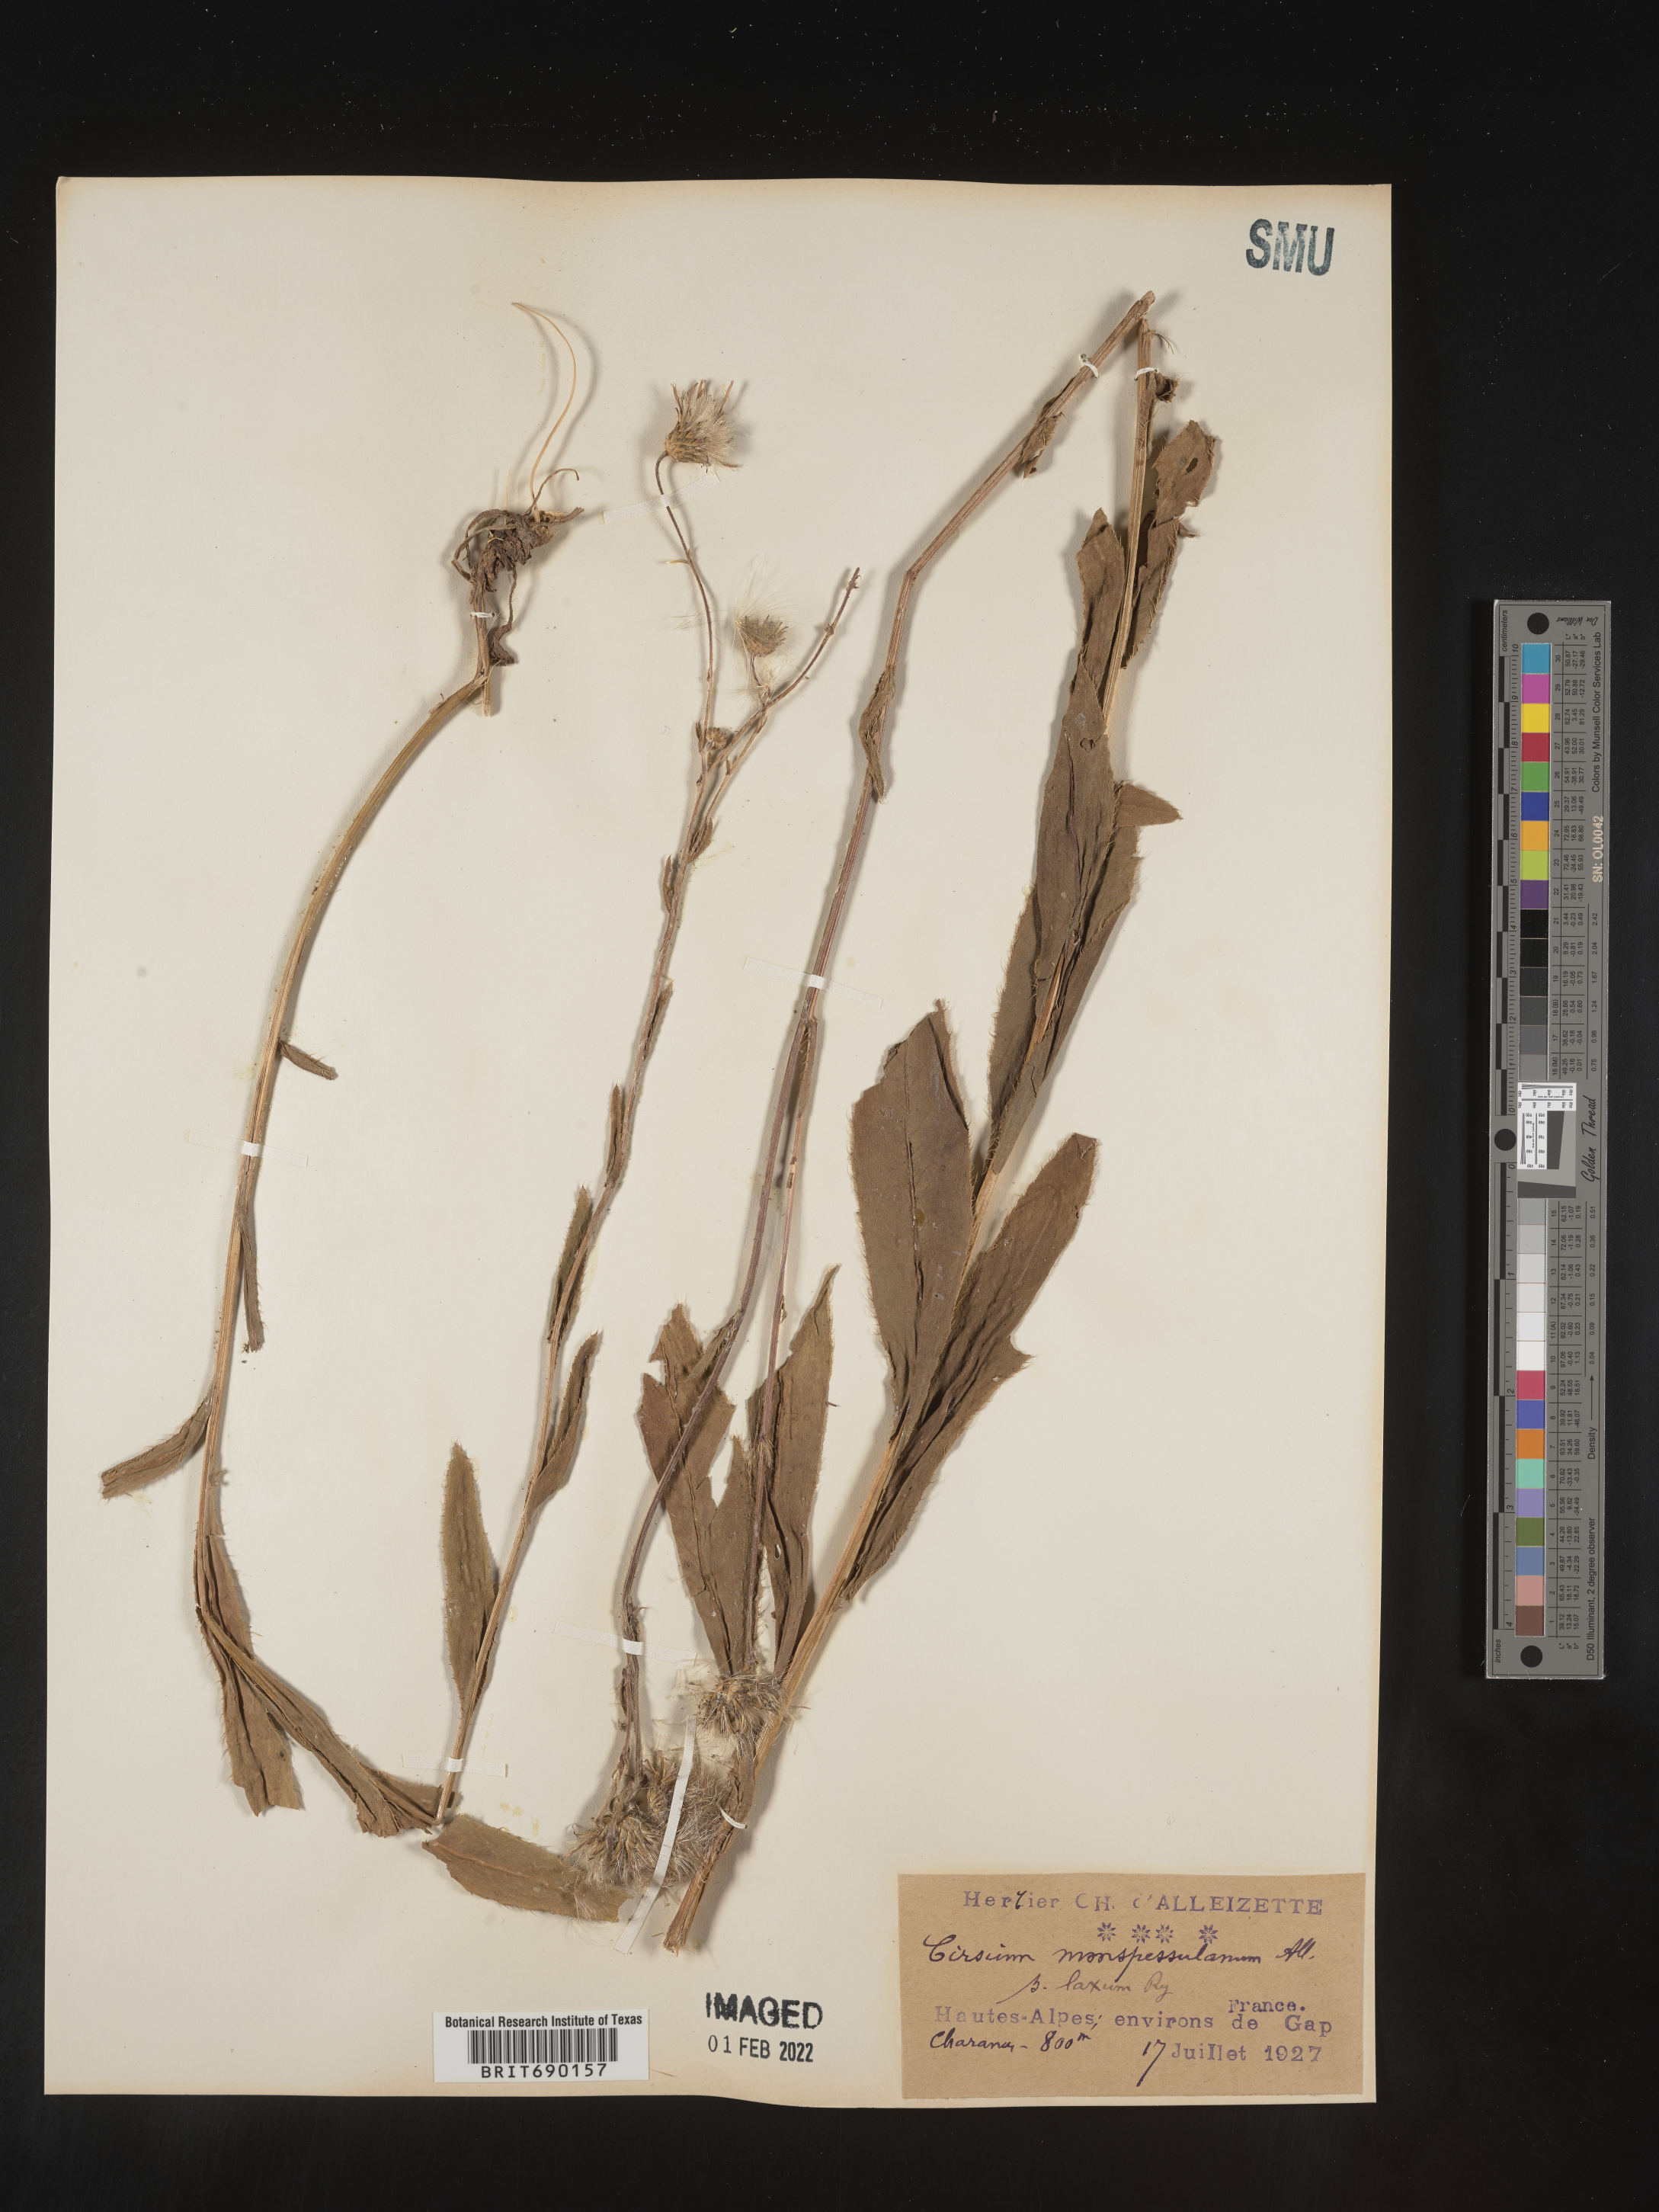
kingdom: Plantae
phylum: Tracheophyta
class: Magnoliopsida
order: Asterales
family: Asteraceae
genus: Cirsium
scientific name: Cirsium
